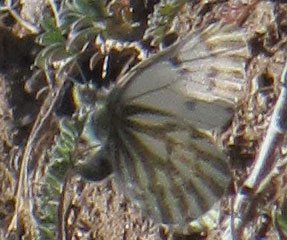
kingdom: Animalia
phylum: Arthropoda
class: Insecta
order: Lepidoptera
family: Pieridae
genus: Pontia
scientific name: Pontia sisymbrii
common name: Spring White
